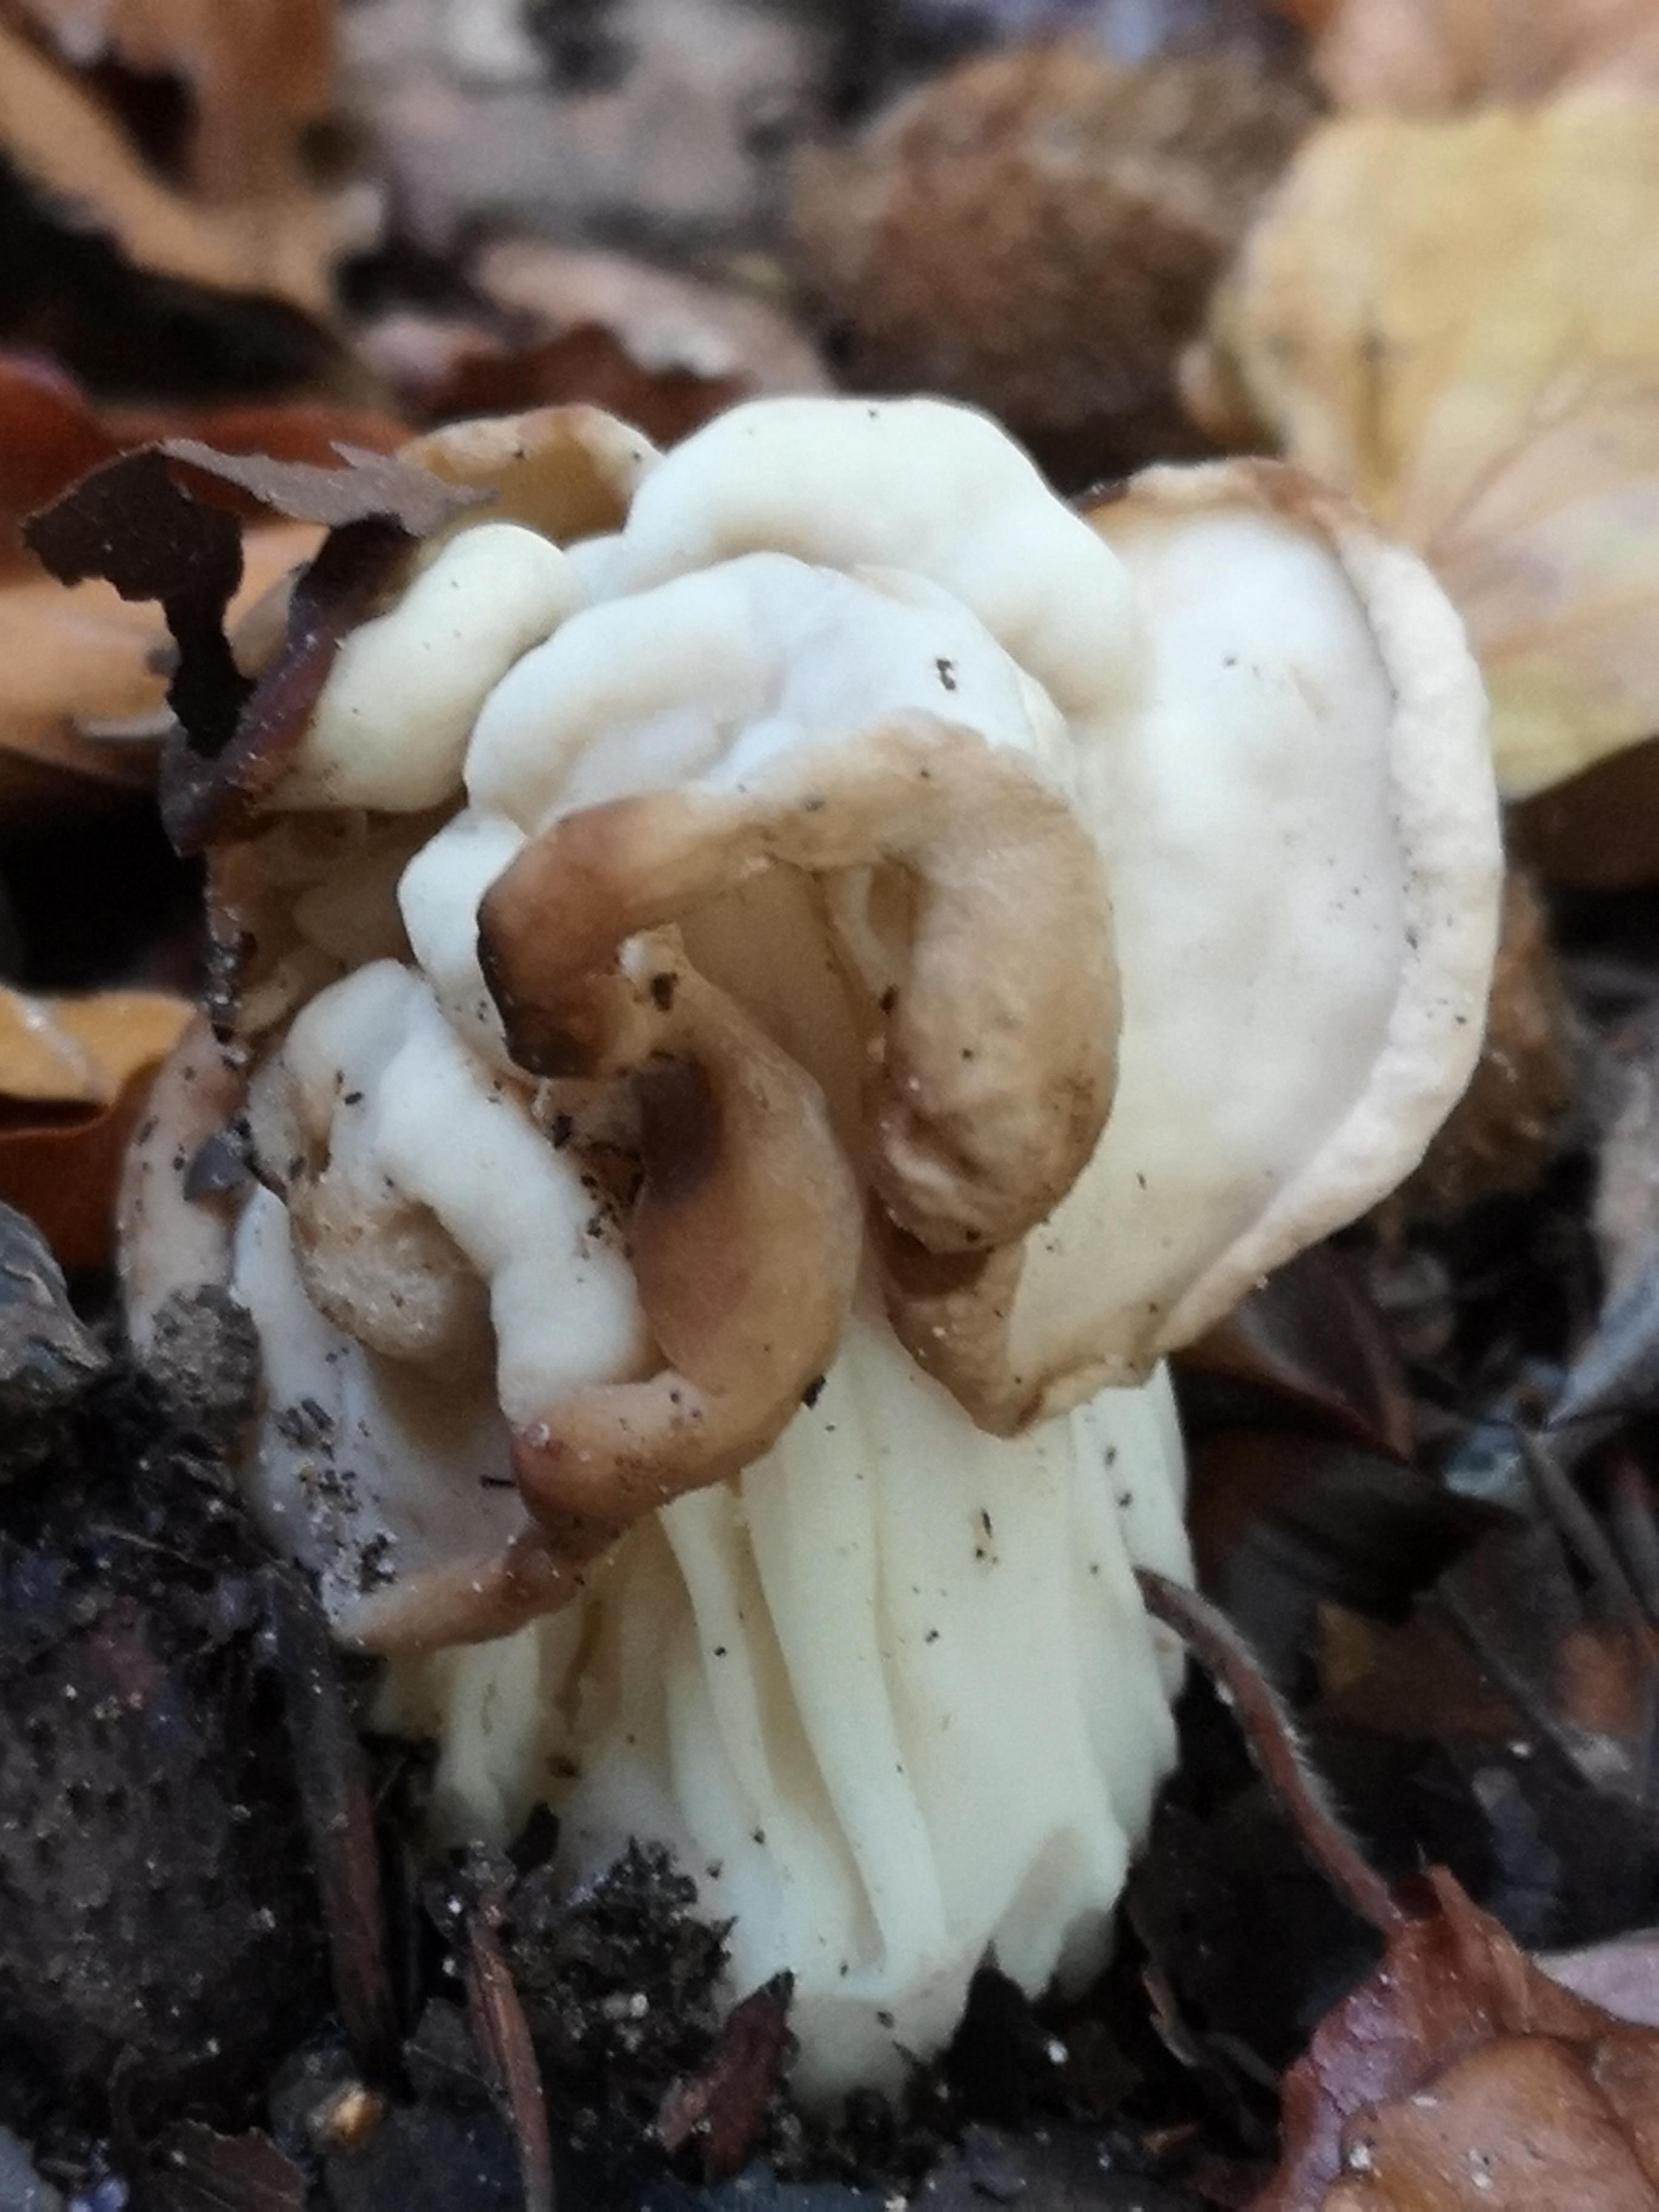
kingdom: Fungi
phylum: Ascomycota
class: Pezizomycetes
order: Pezizales
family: Helvellaceae
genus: Helvella
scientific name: Helvella crispa
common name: kruset foldhat
